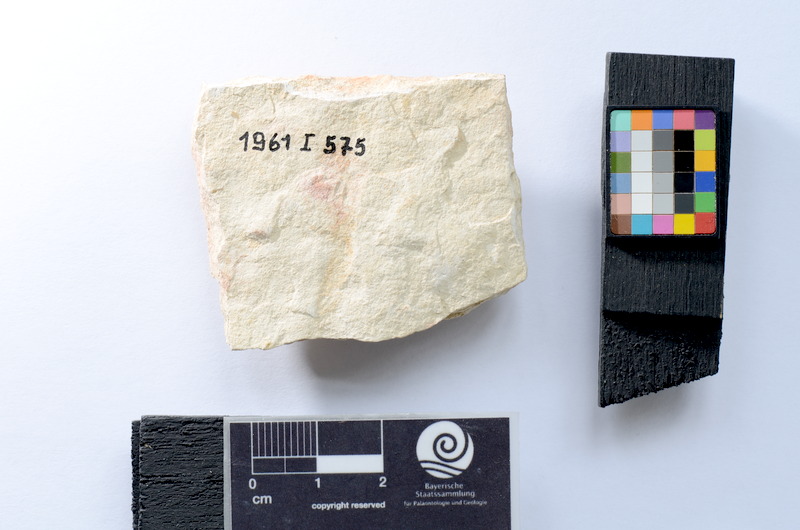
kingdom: Animalia
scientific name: Animalia
